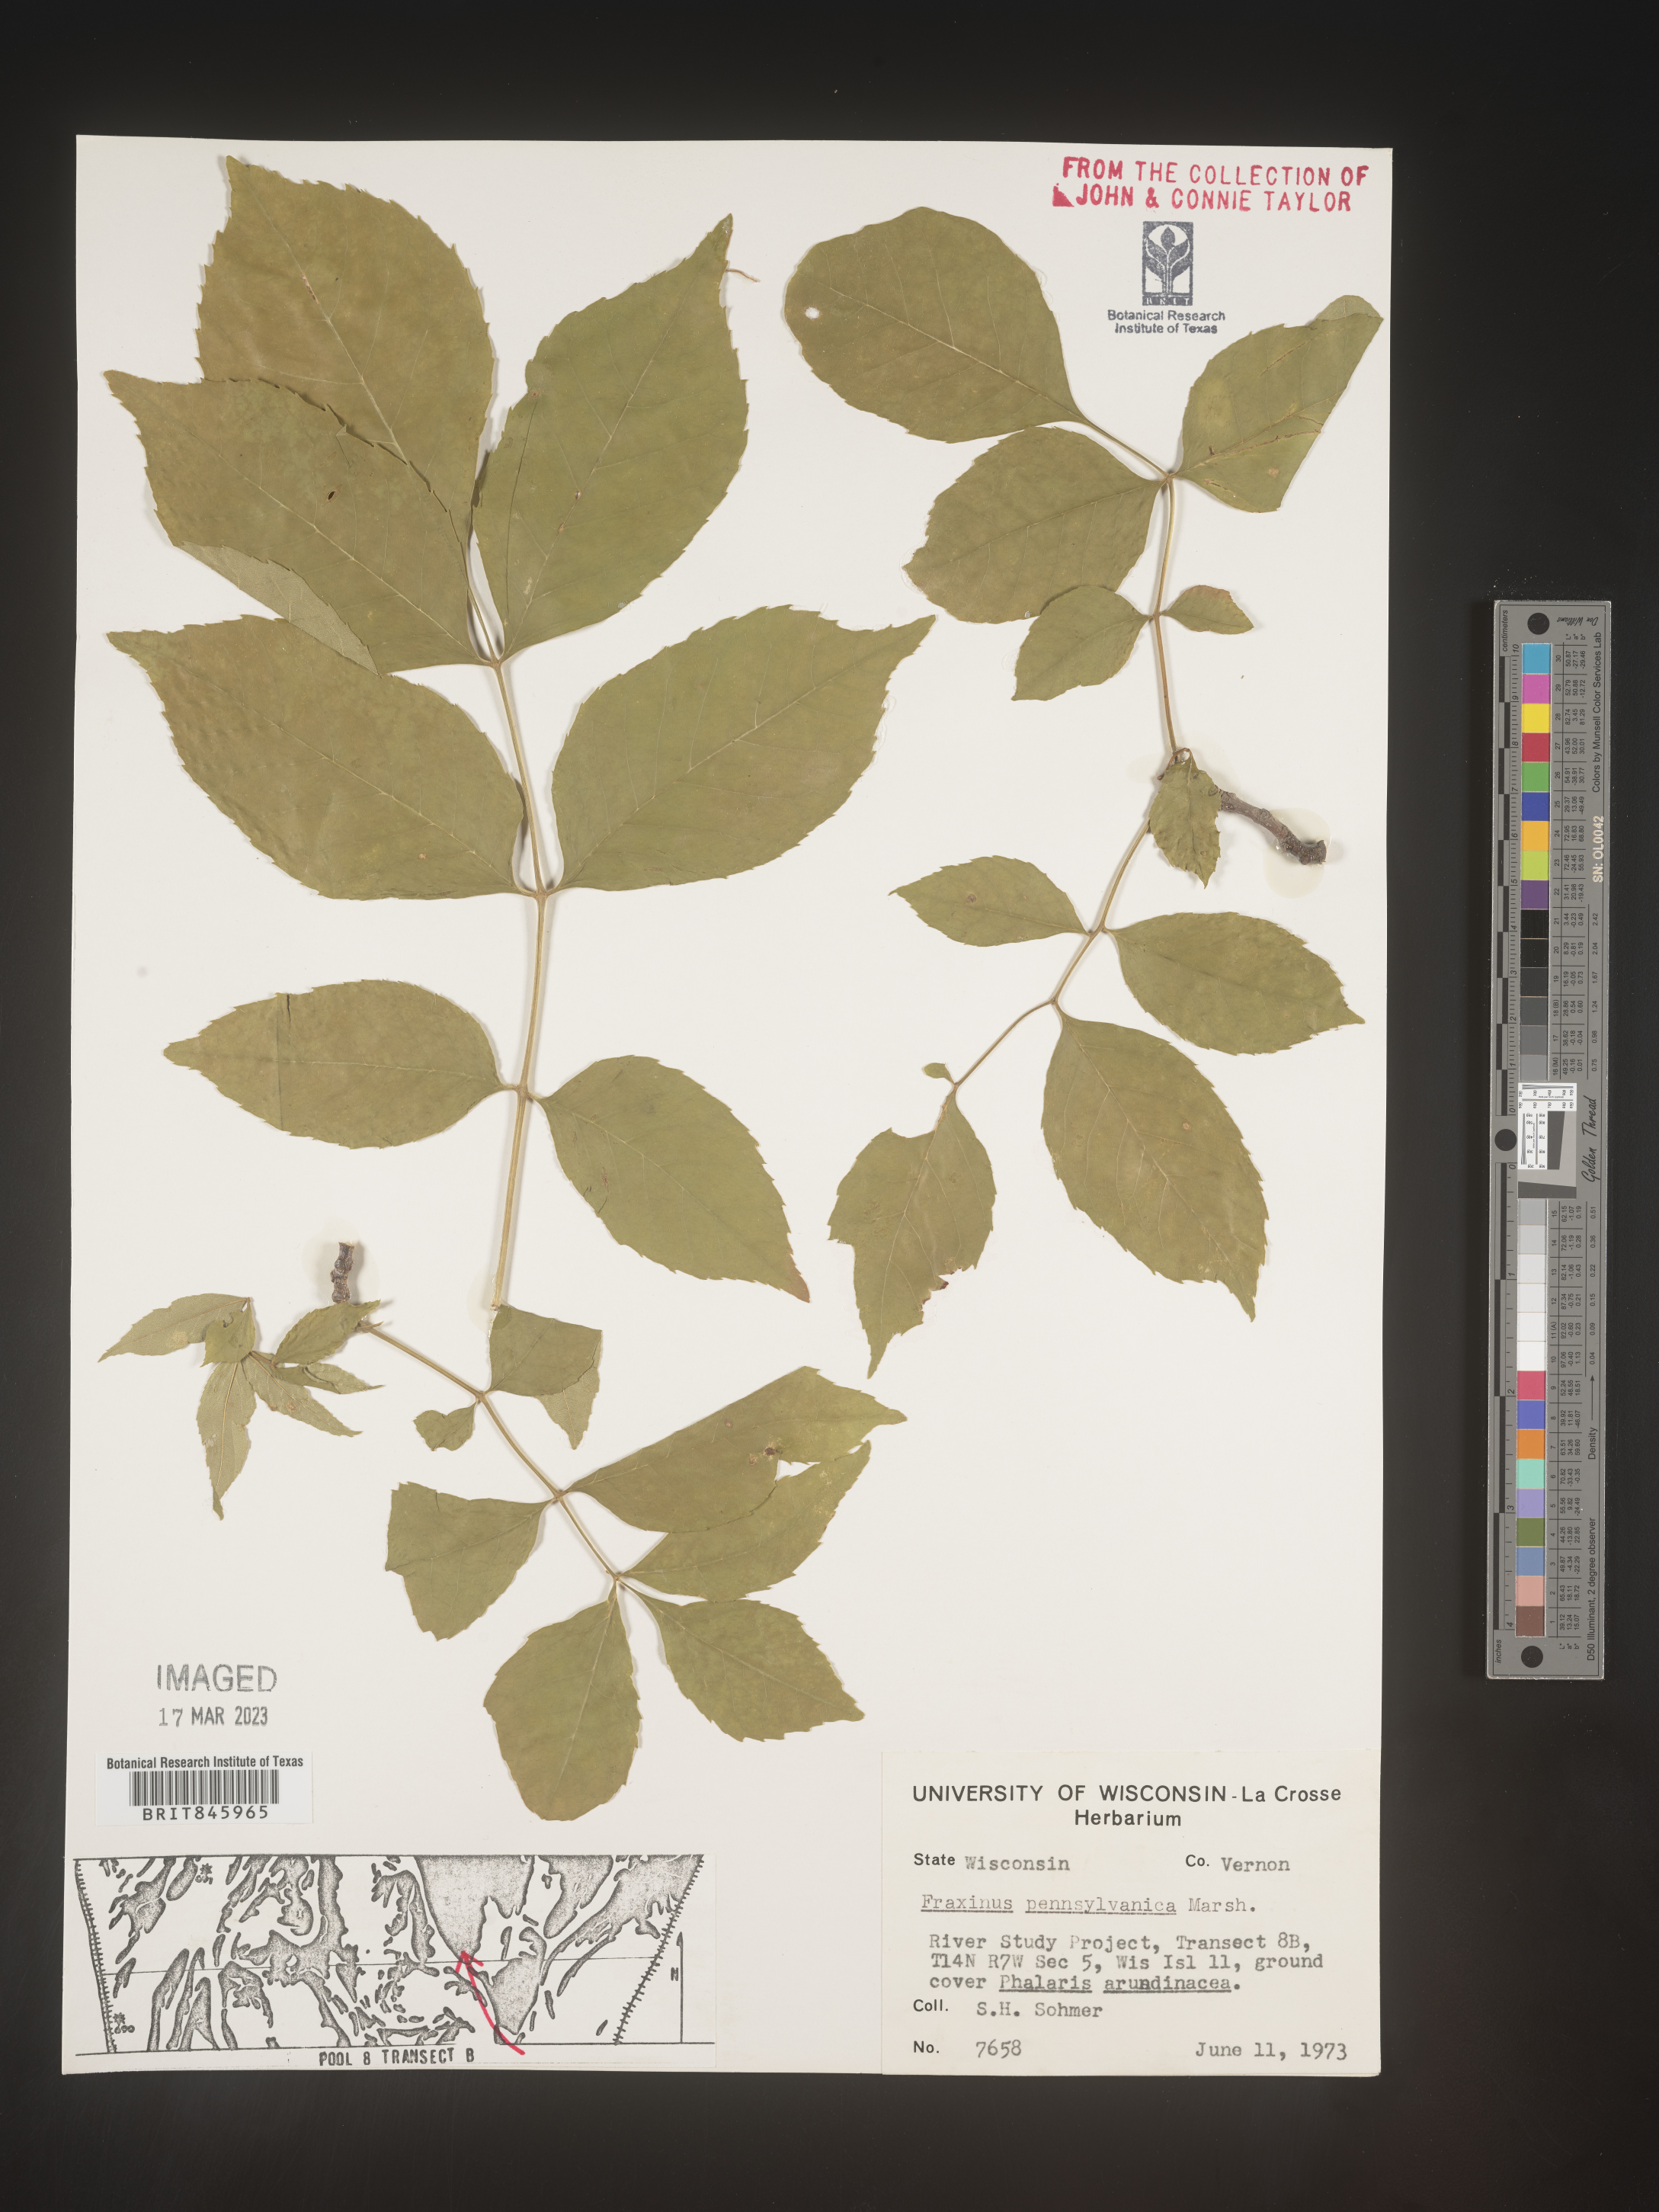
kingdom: Plantae
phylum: Tracheophyta
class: Magnoliopsida
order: Lamiales
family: Oleaceae
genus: Fraxinus
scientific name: Fraxinus
